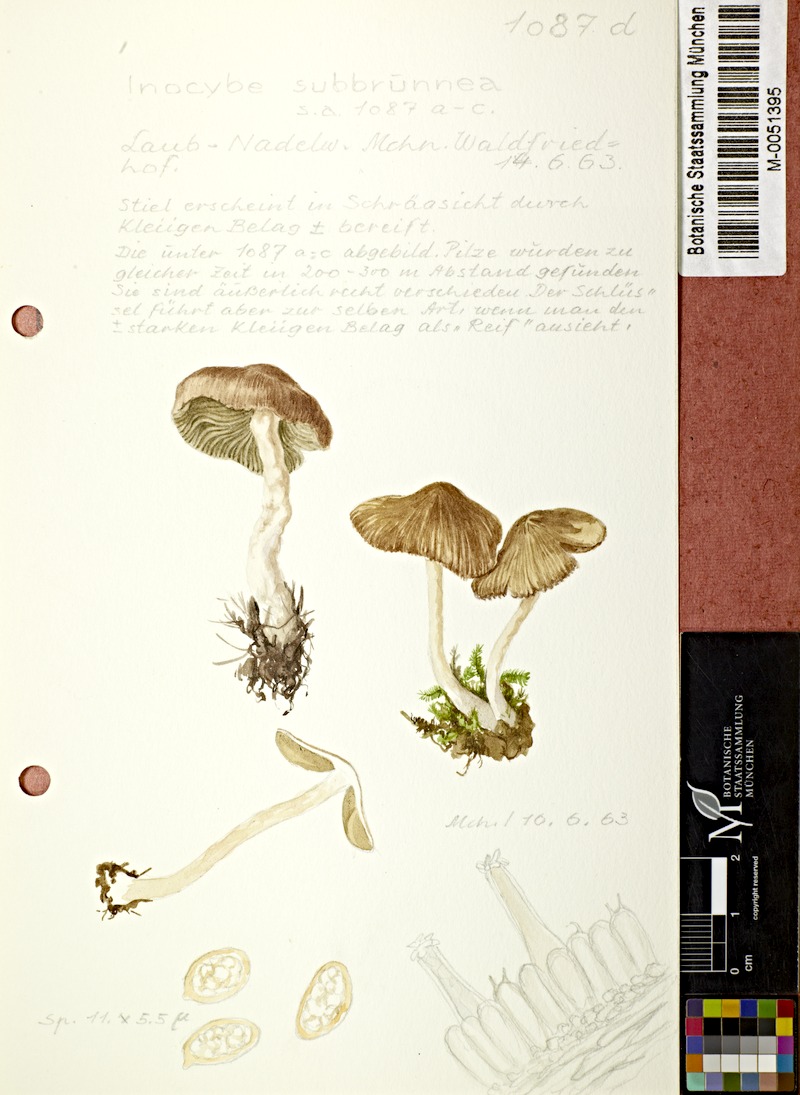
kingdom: Fungi
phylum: Basidiomycota
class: Agaricomycetes
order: Agaricales
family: Inocybaceae
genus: Inocybe
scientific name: Inocybe catalaunica
